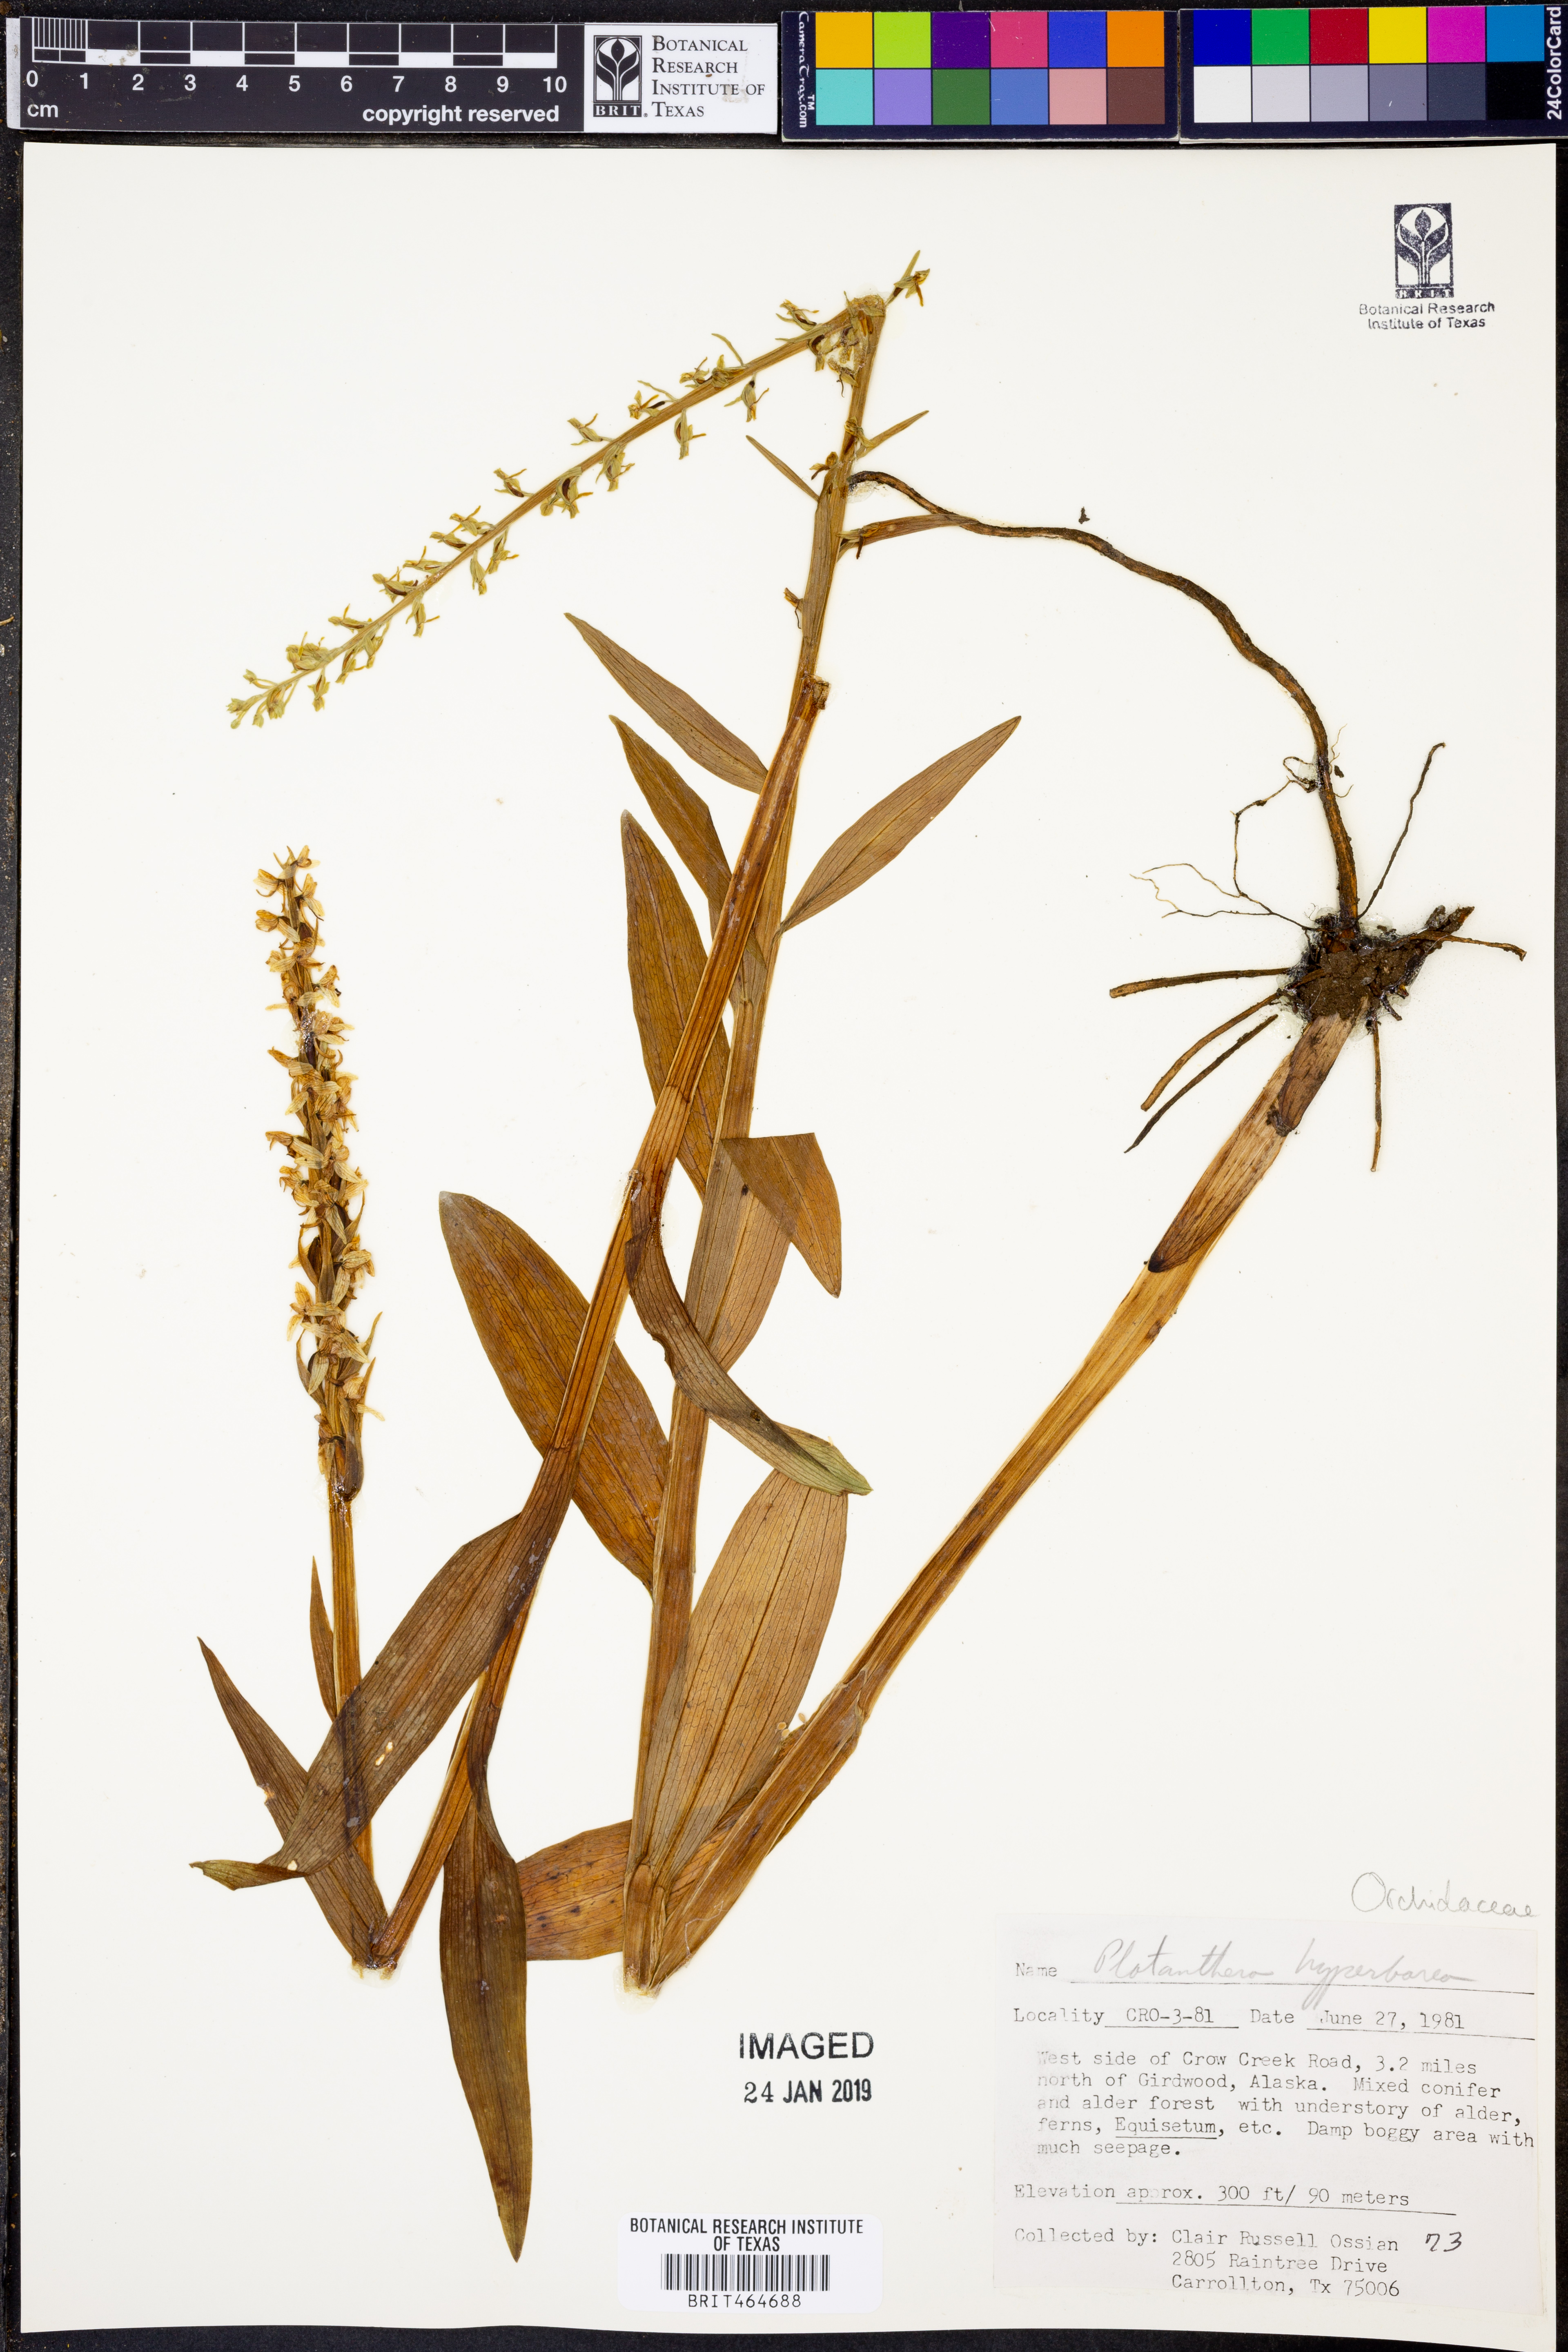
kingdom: Plantae
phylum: Tracheophyta
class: Liliopsida
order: Asparagales
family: Orchidaceae
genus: Platanthera
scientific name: Platanthera hyperborea
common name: Northern green orchid
